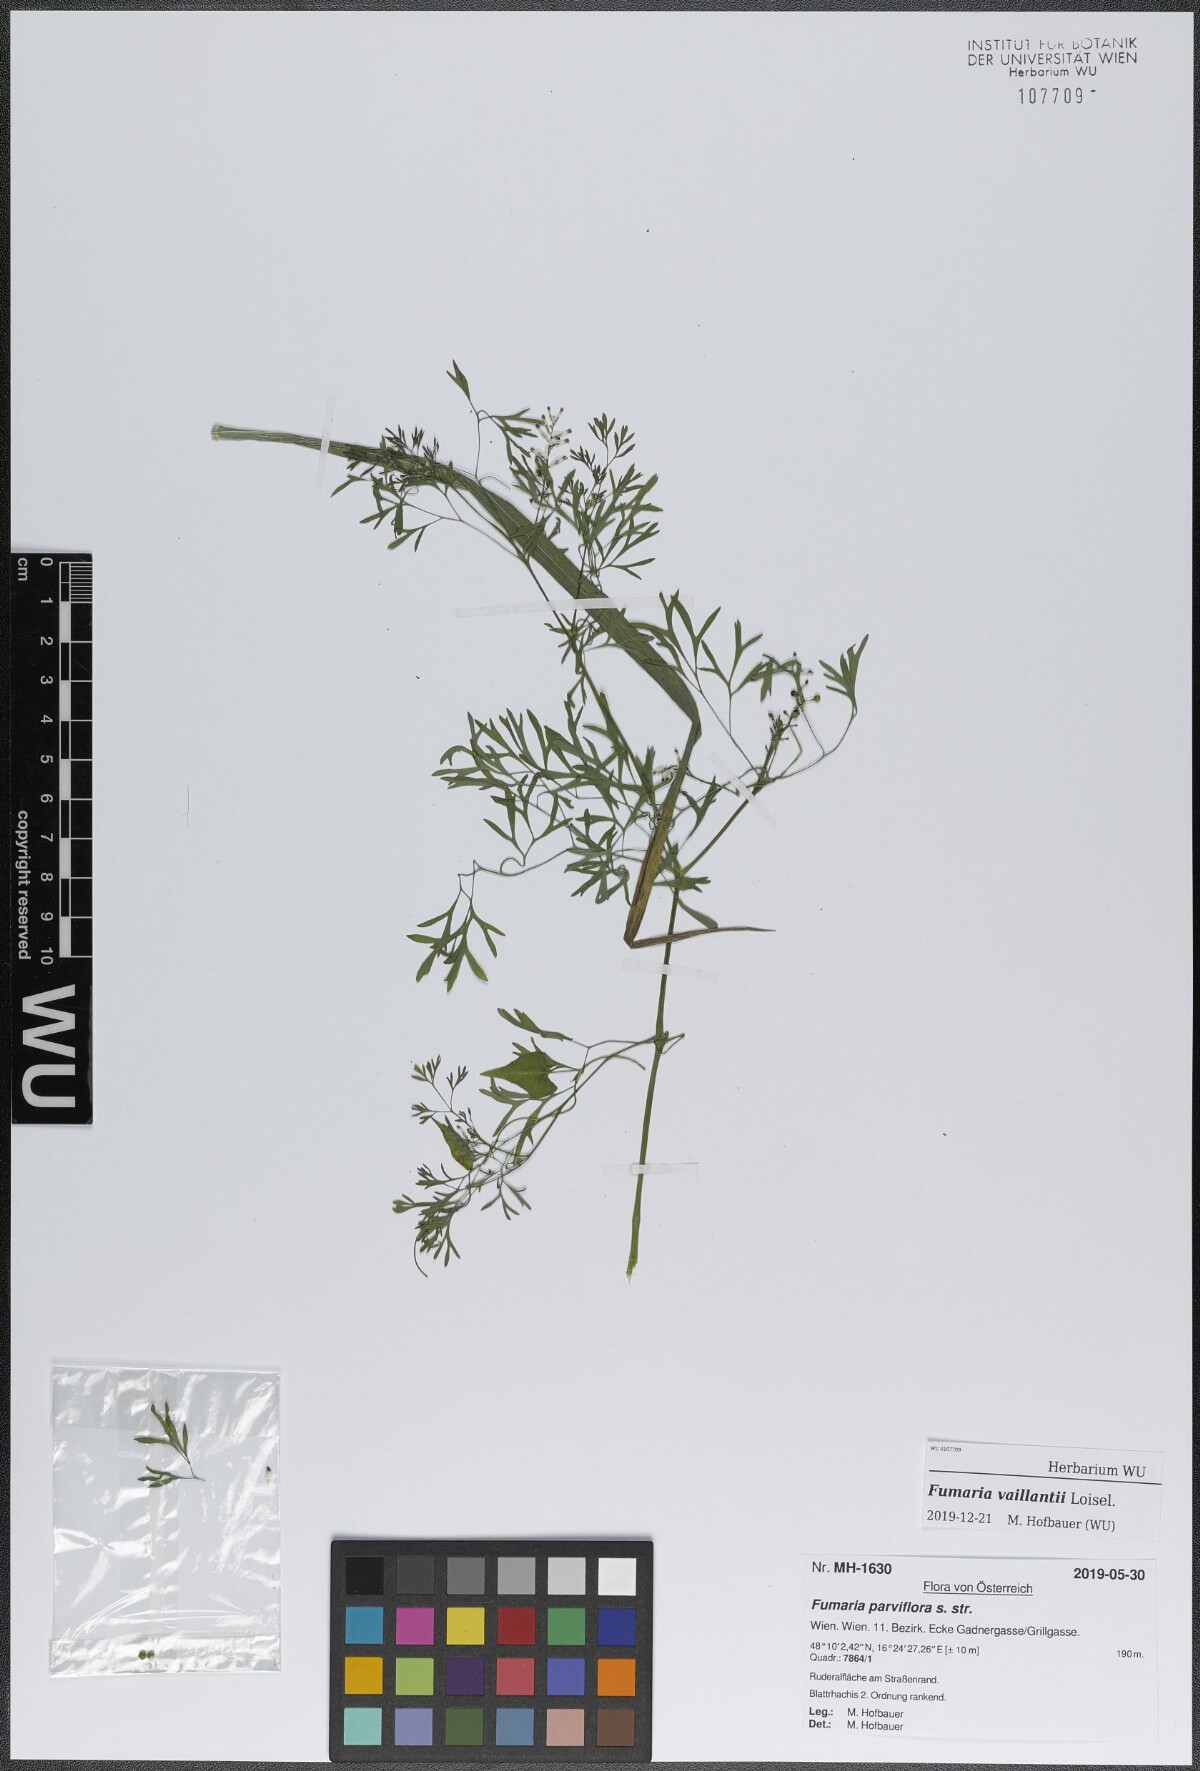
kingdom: Plantae
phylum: Tracheophyta
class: Magnoliopsida
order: Ranunculales
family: Papaveraceae
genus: Fumaria
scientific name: Fumaria vaillantii
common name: Few-flowered fumitory
